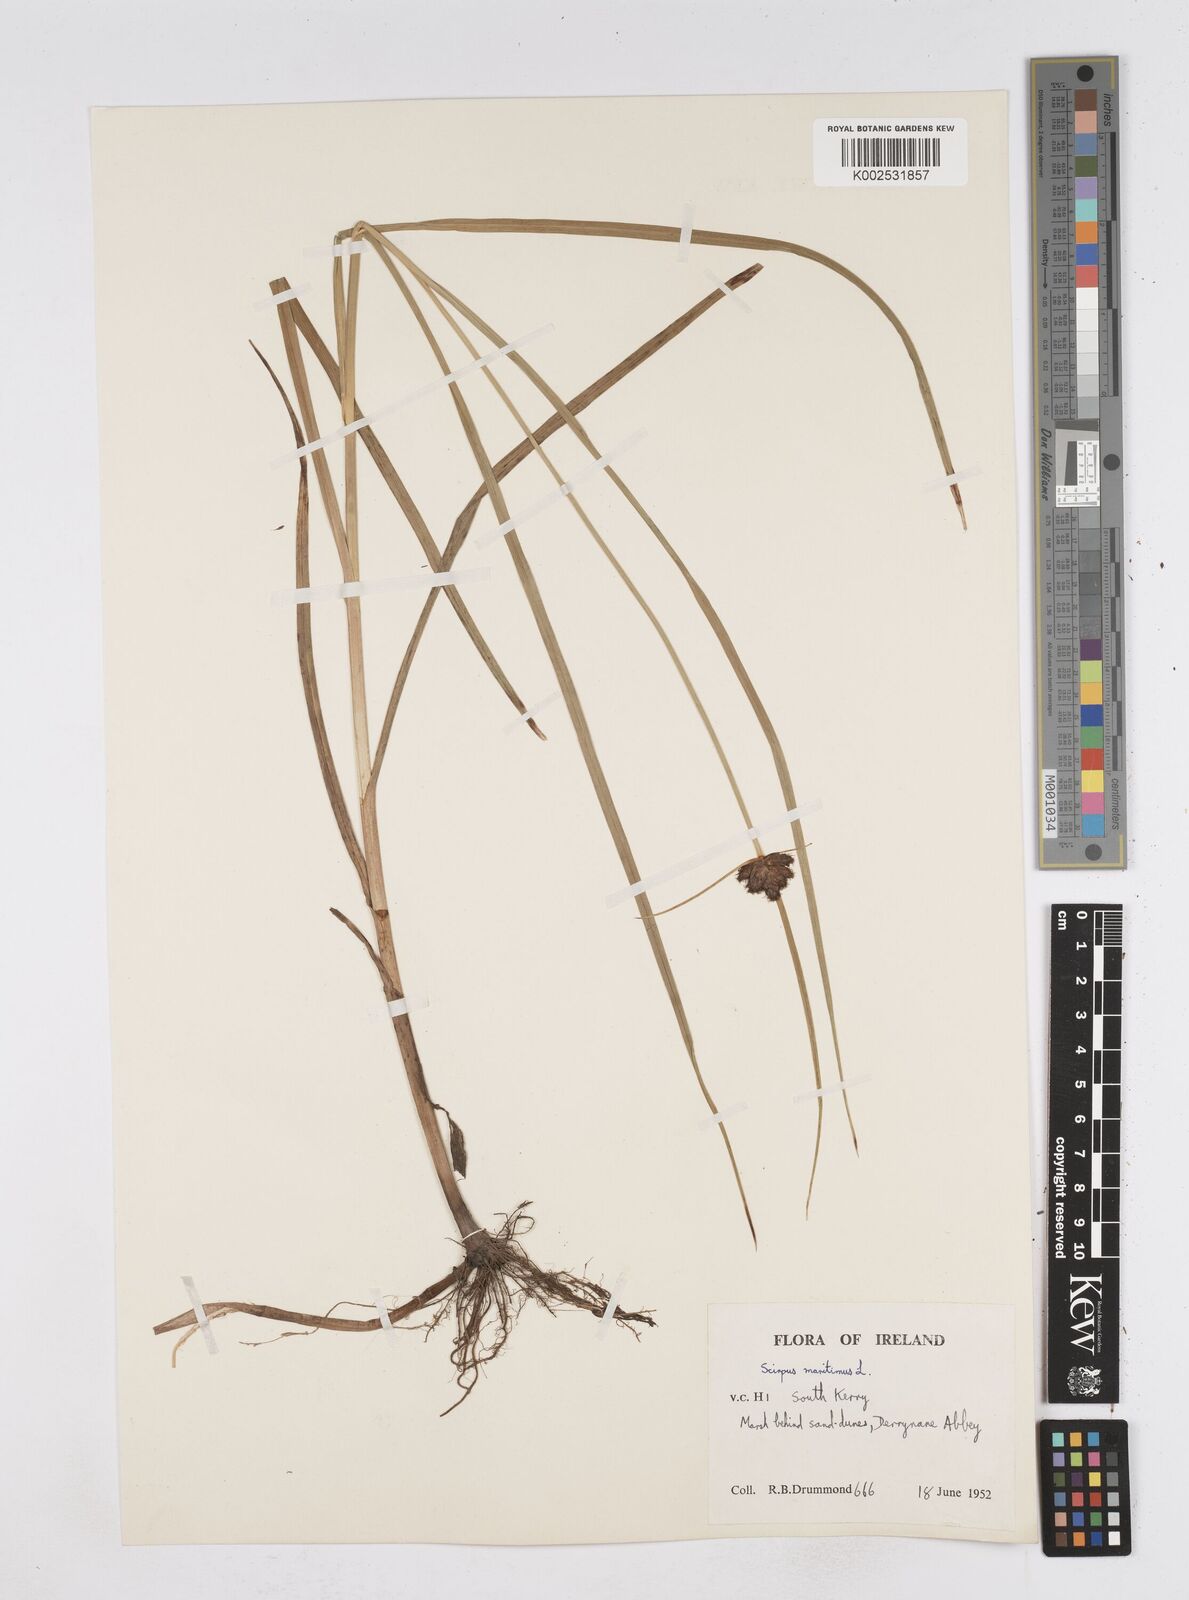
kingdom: Plantae
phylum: Tracheophyta
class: Liliopsida
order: Poales
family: Cyperaceae
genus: Bolboschoenus
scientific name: Bolboschoenus maritimus
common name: Sea club-rush
